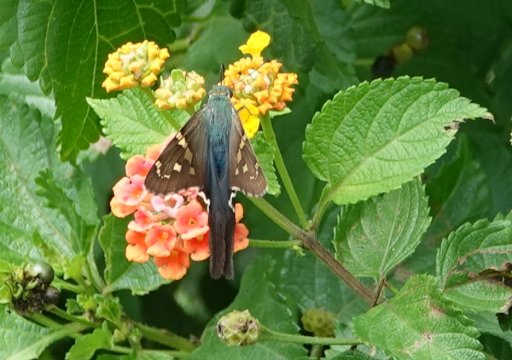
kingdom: Animalia
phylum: Arthropoda
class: Insecta
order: Lepidoptera
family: Hesperiidae
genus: Urbanus
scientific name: Urbanus proteus
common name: Long-tailed Skipper
